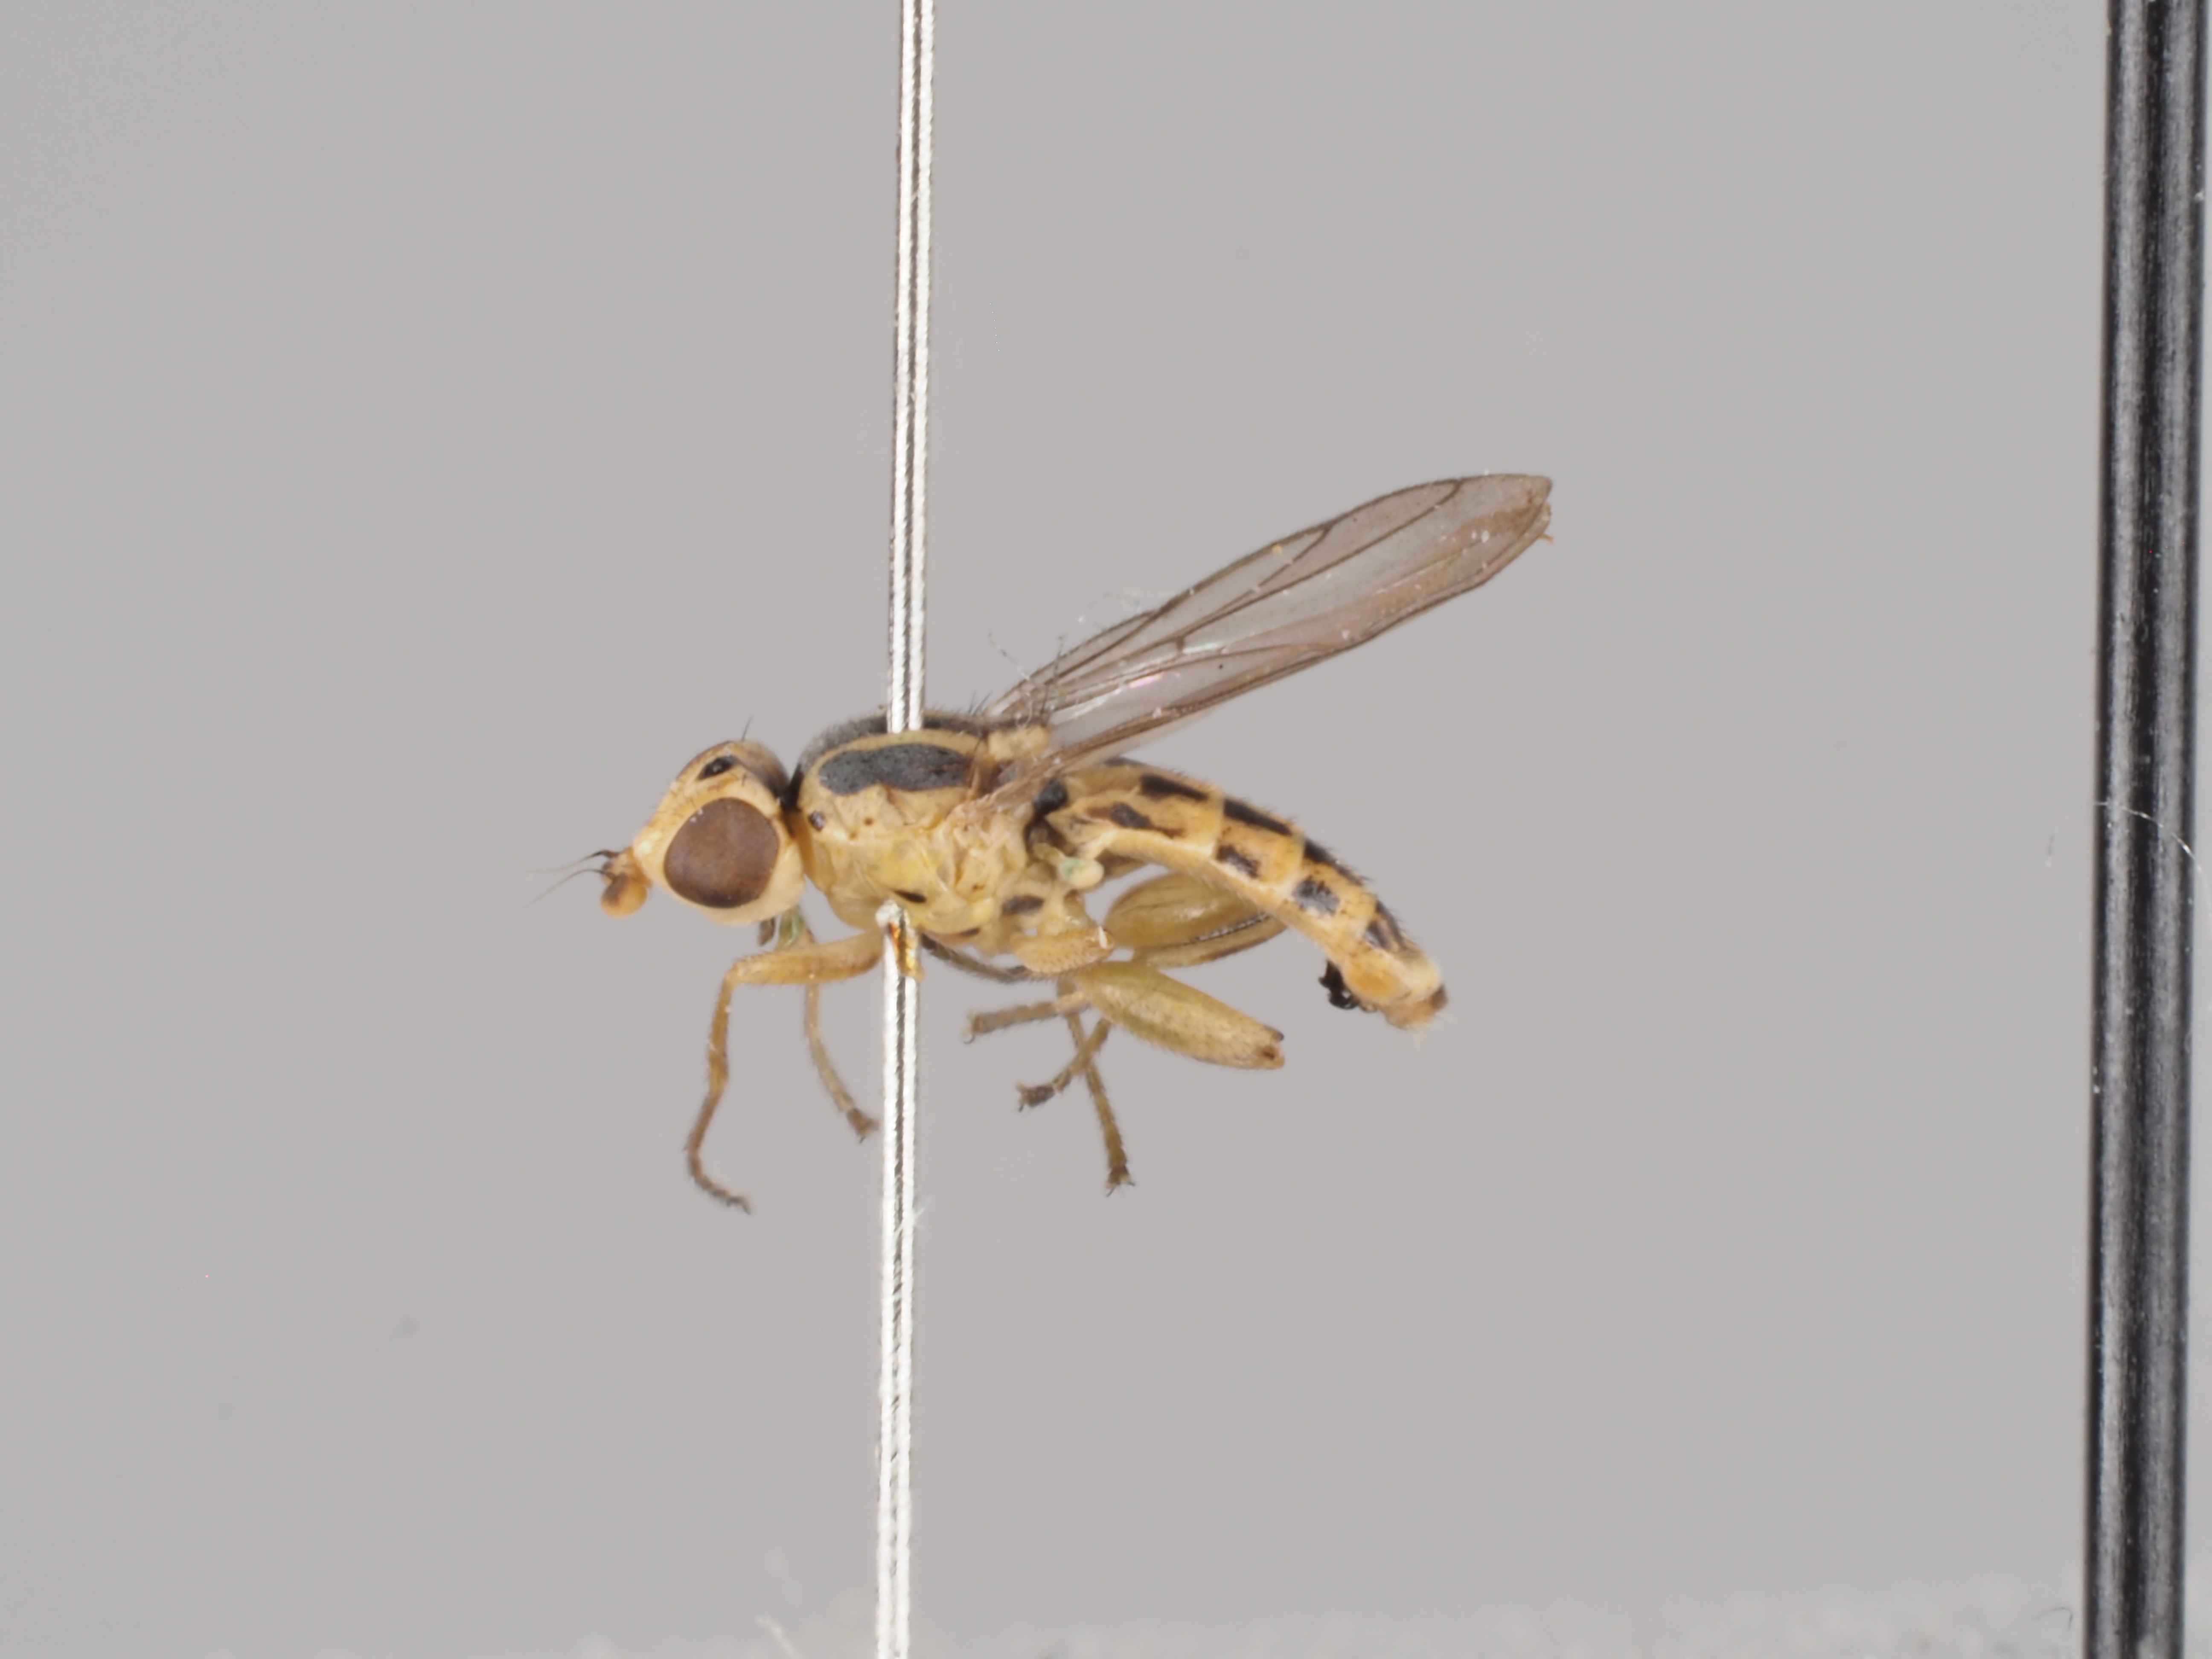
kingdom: Animalia
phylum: Arthropoda
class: Insecta
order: Diptera
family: Chloropidae
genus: Meromyza
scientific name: Meromyza saltatrix
